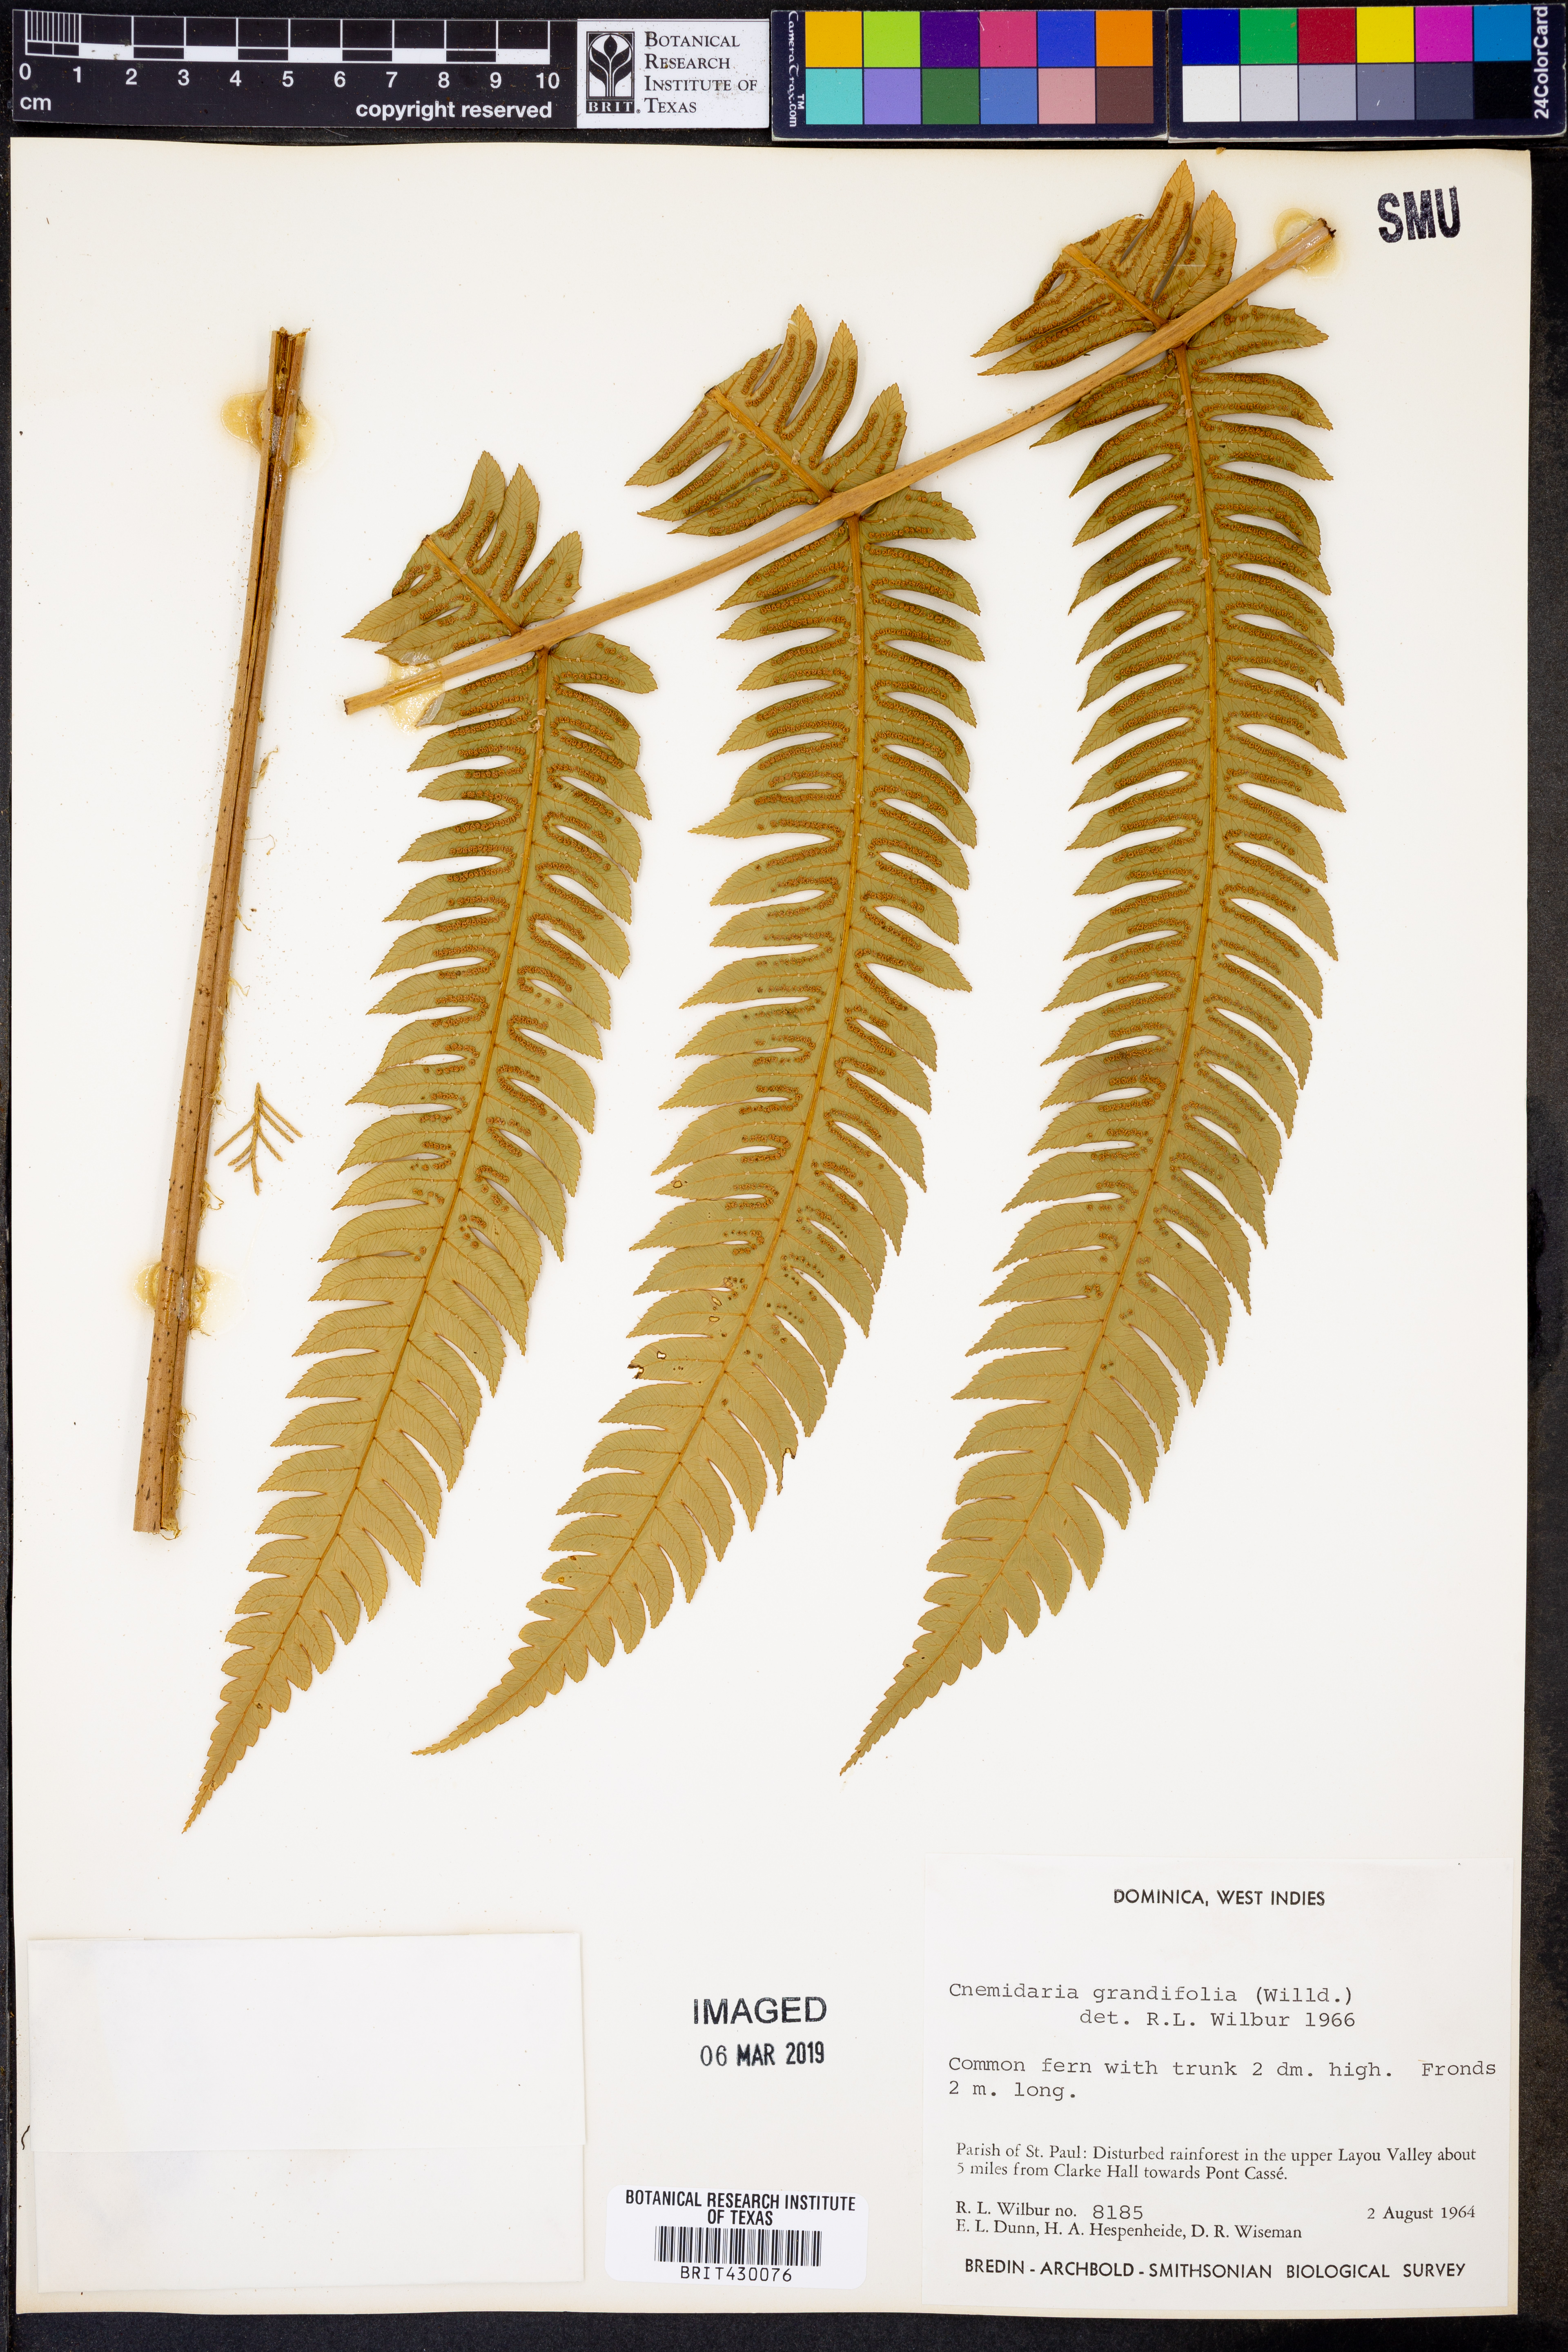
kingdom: Plantae
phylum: Tracheophyta
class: Polypodiopsida
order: Cyatheales
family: Cyatheaceae
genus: Cyathea
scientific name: Cyathea grandifolia
